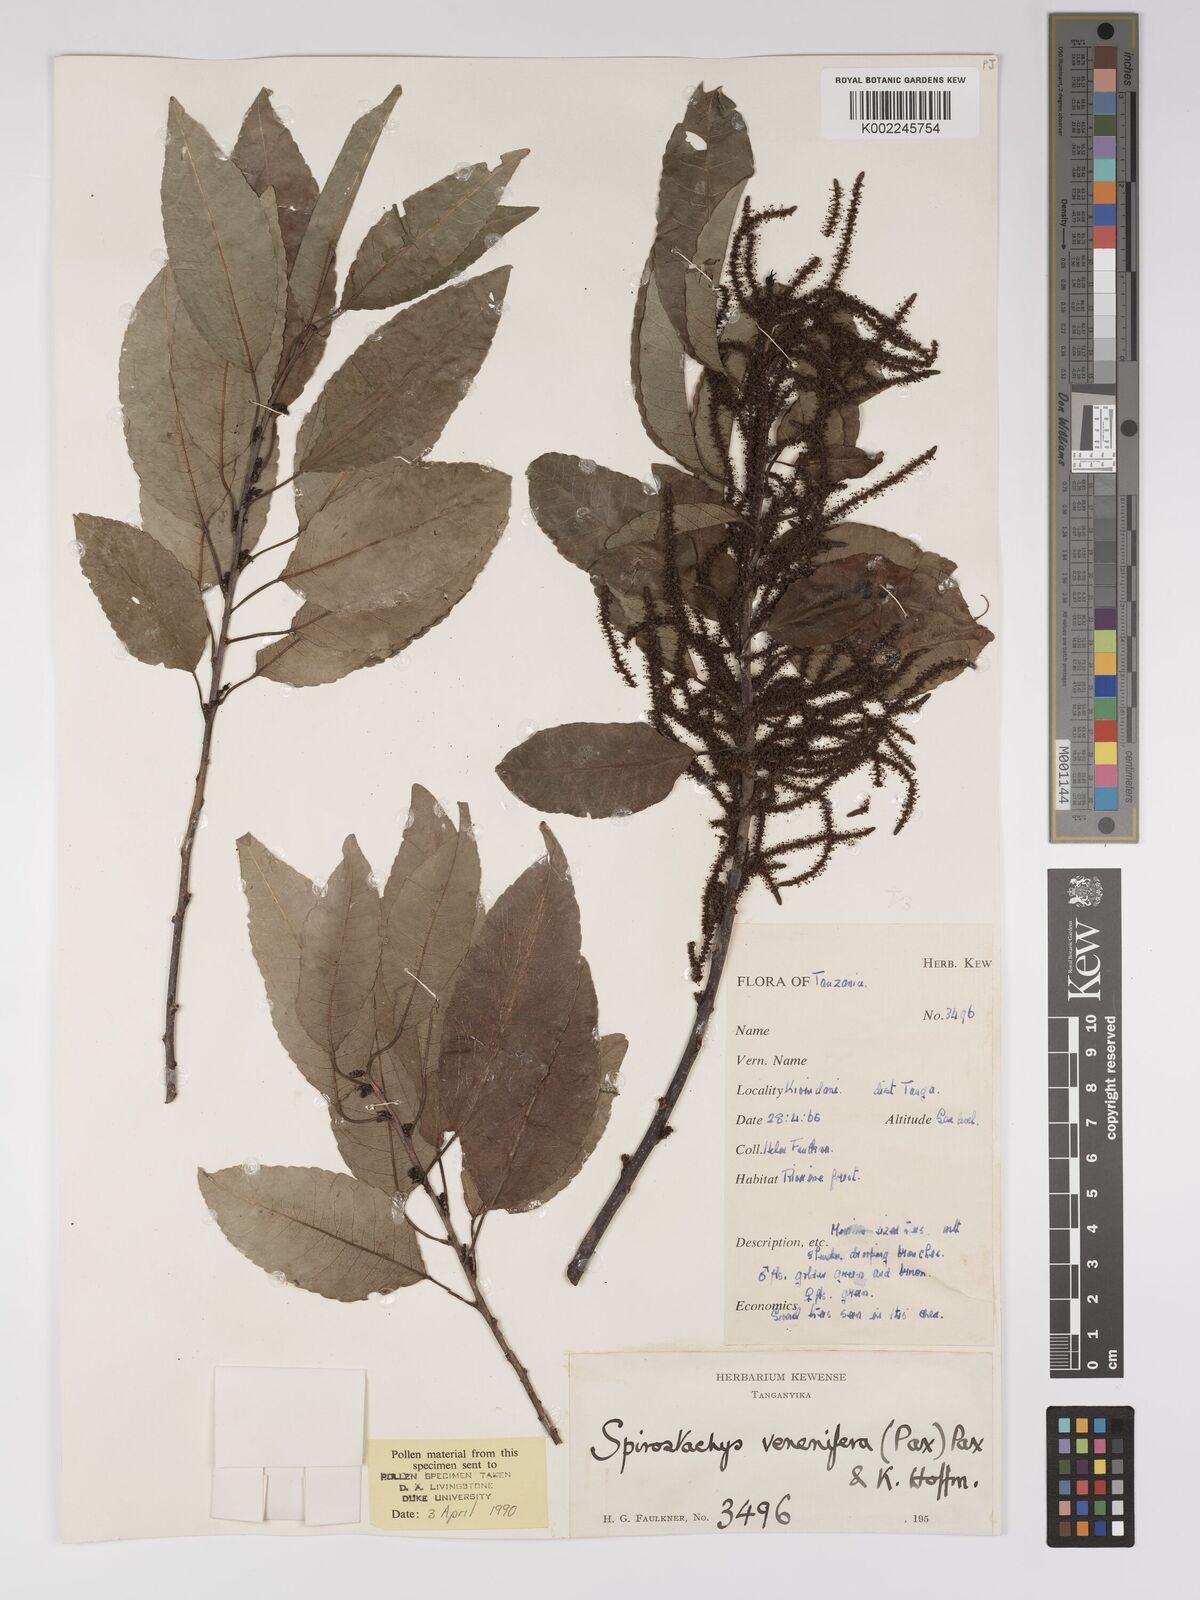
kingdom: Plantae
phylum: Tracheophyta
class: Magnoliopsida
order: Malpighiales
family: Euphorbiaceae
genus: Spirostachys
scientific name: Spirostachys venenifera
